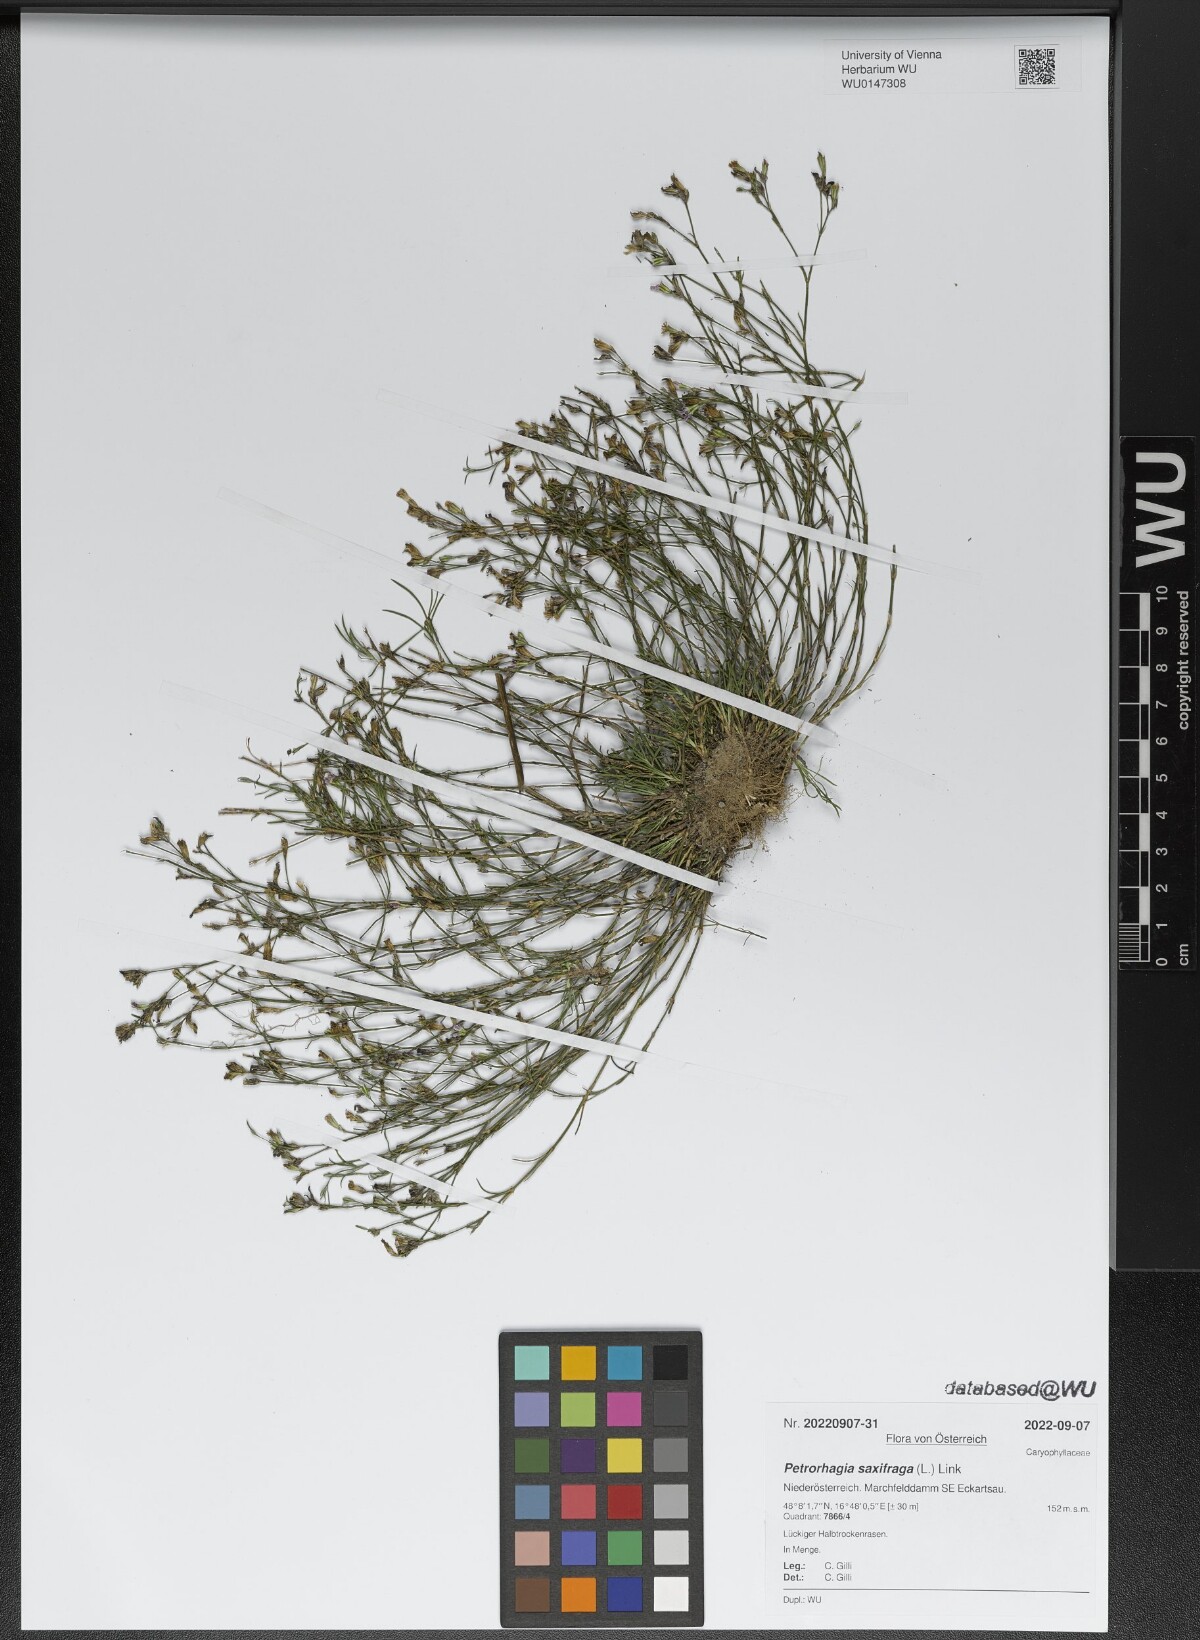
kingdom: Plantae
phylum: Tracheophyta
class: Magnoliopsida
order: Caryophyllales
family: Caryophyllaceae
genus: Petrorhagia
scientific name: Petrorhagia saxifraga
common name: Tunicflower
